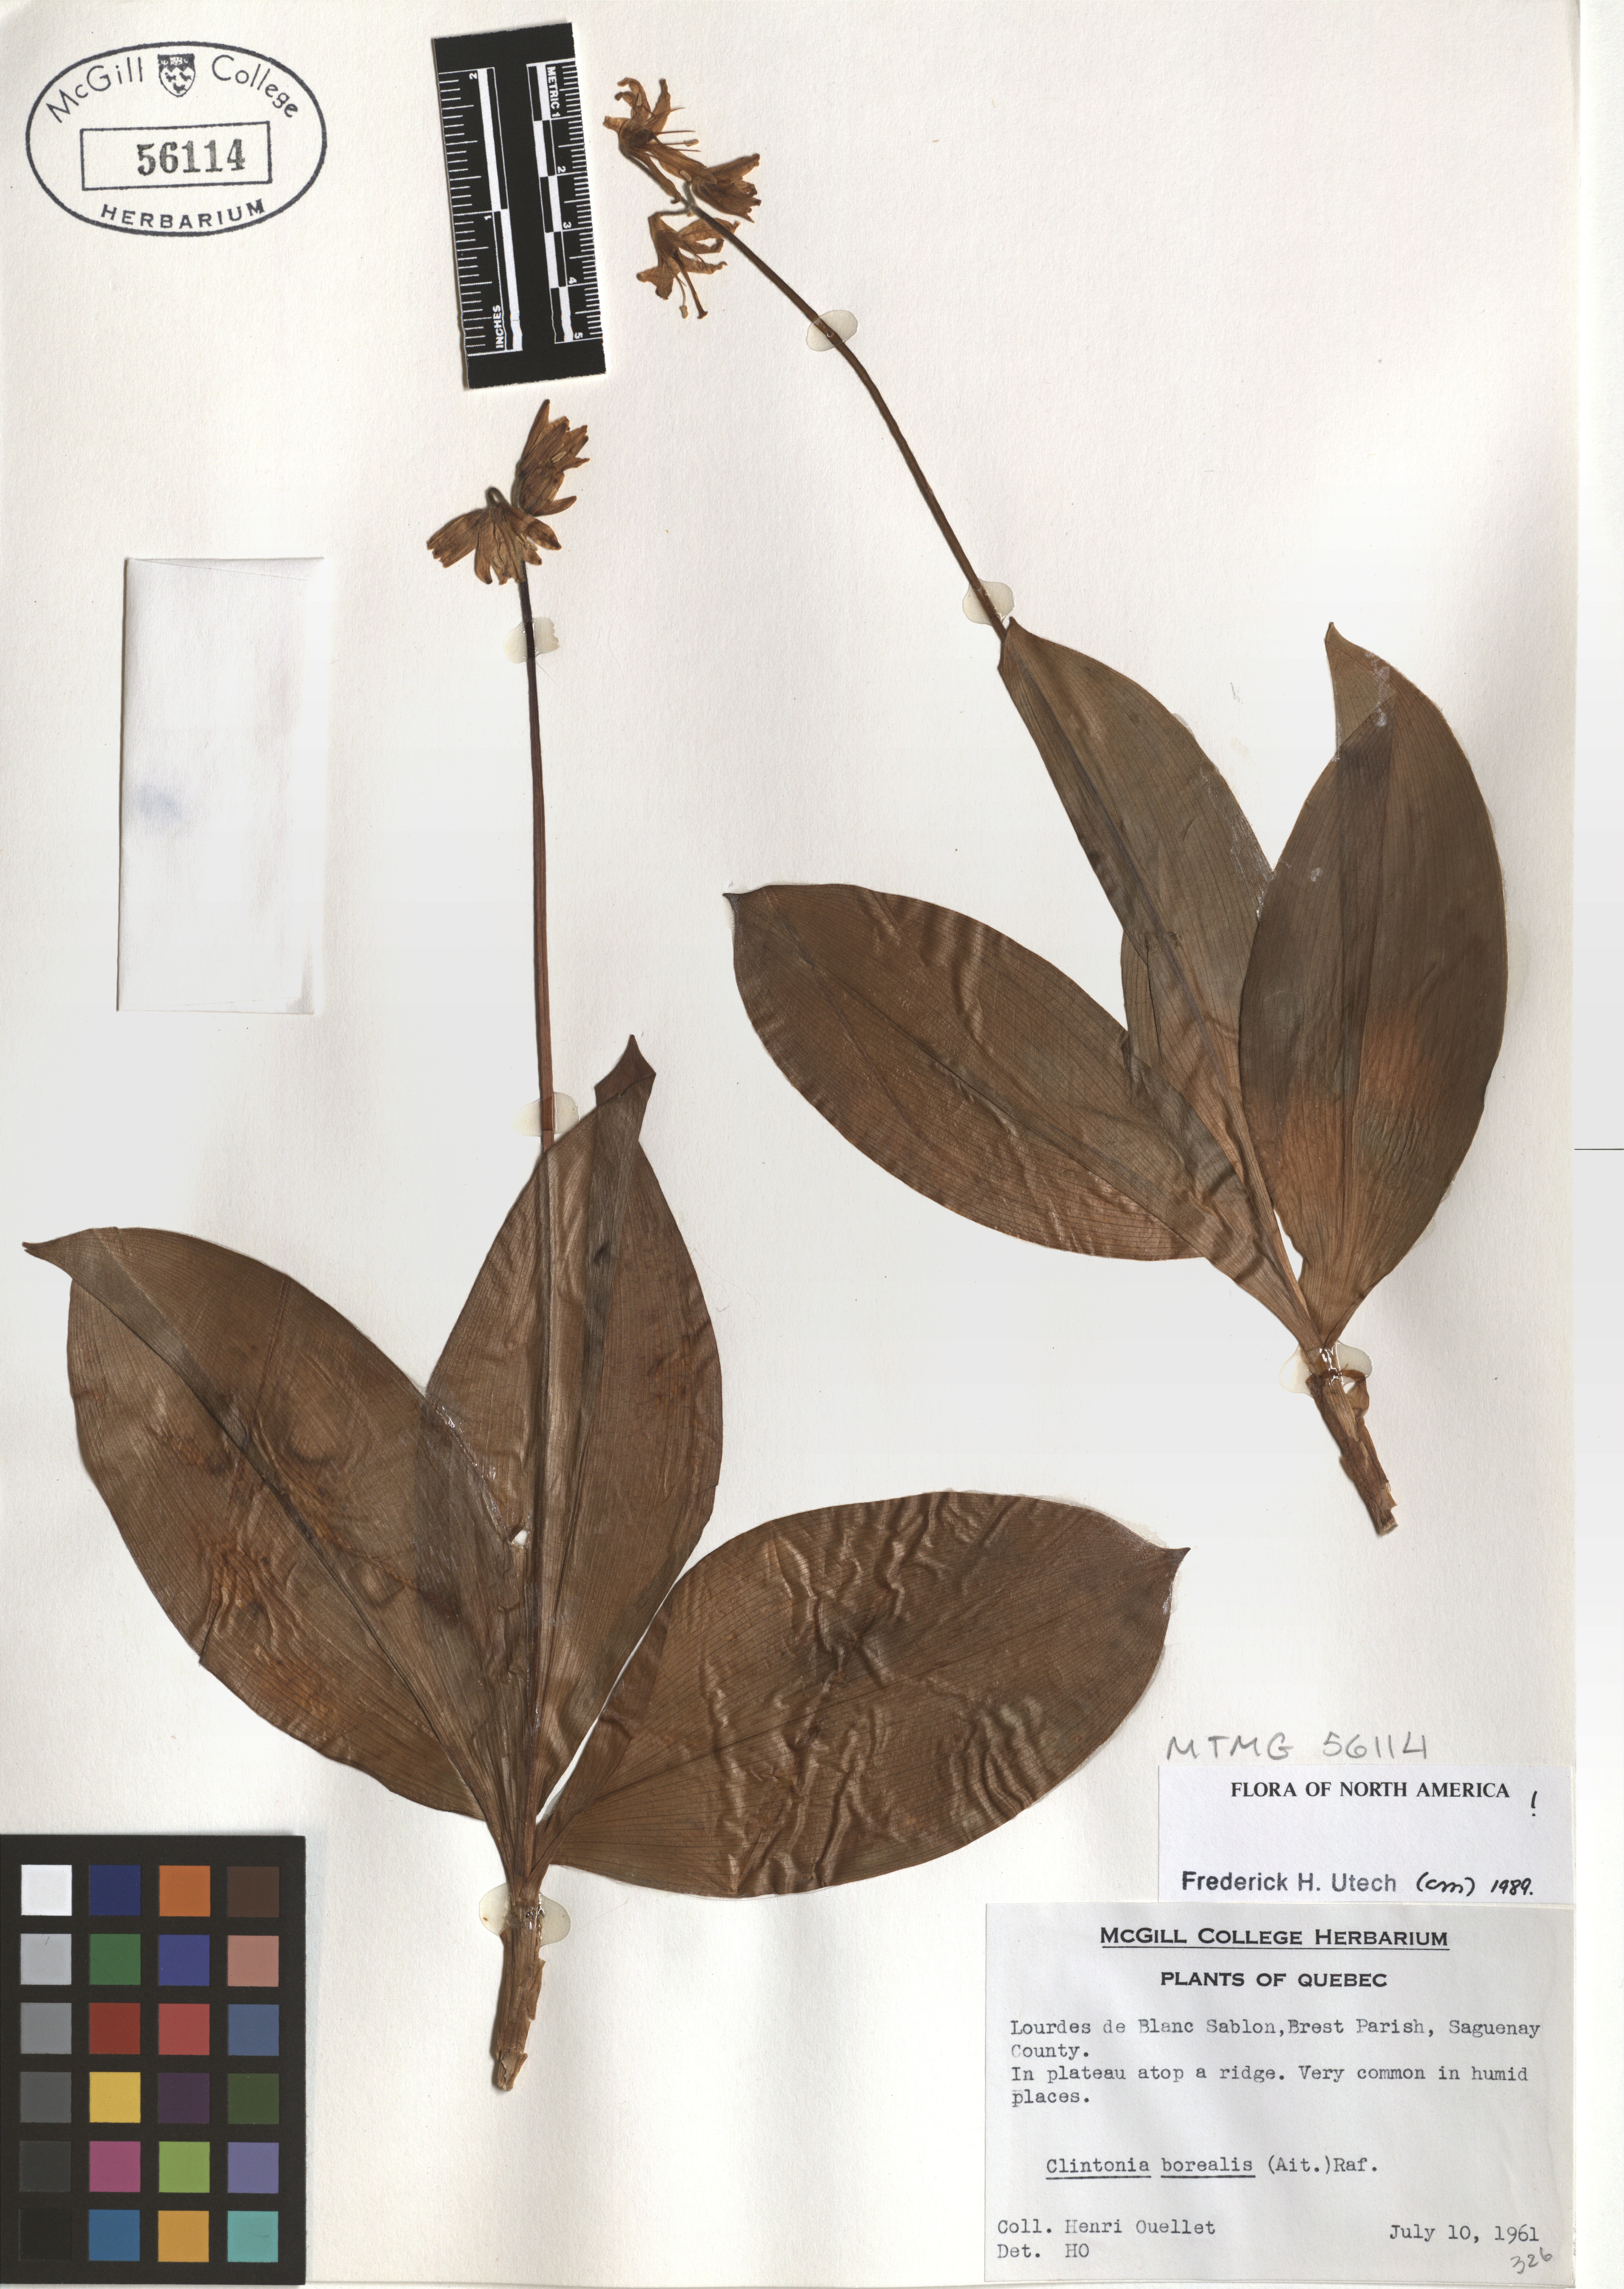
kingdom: Plantae
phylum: Tracheophyta
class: Liliopsida
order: Liliales
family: Liliaceae
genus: Clintonia
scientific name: Clintonia borealis
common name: Yellow clintonia
